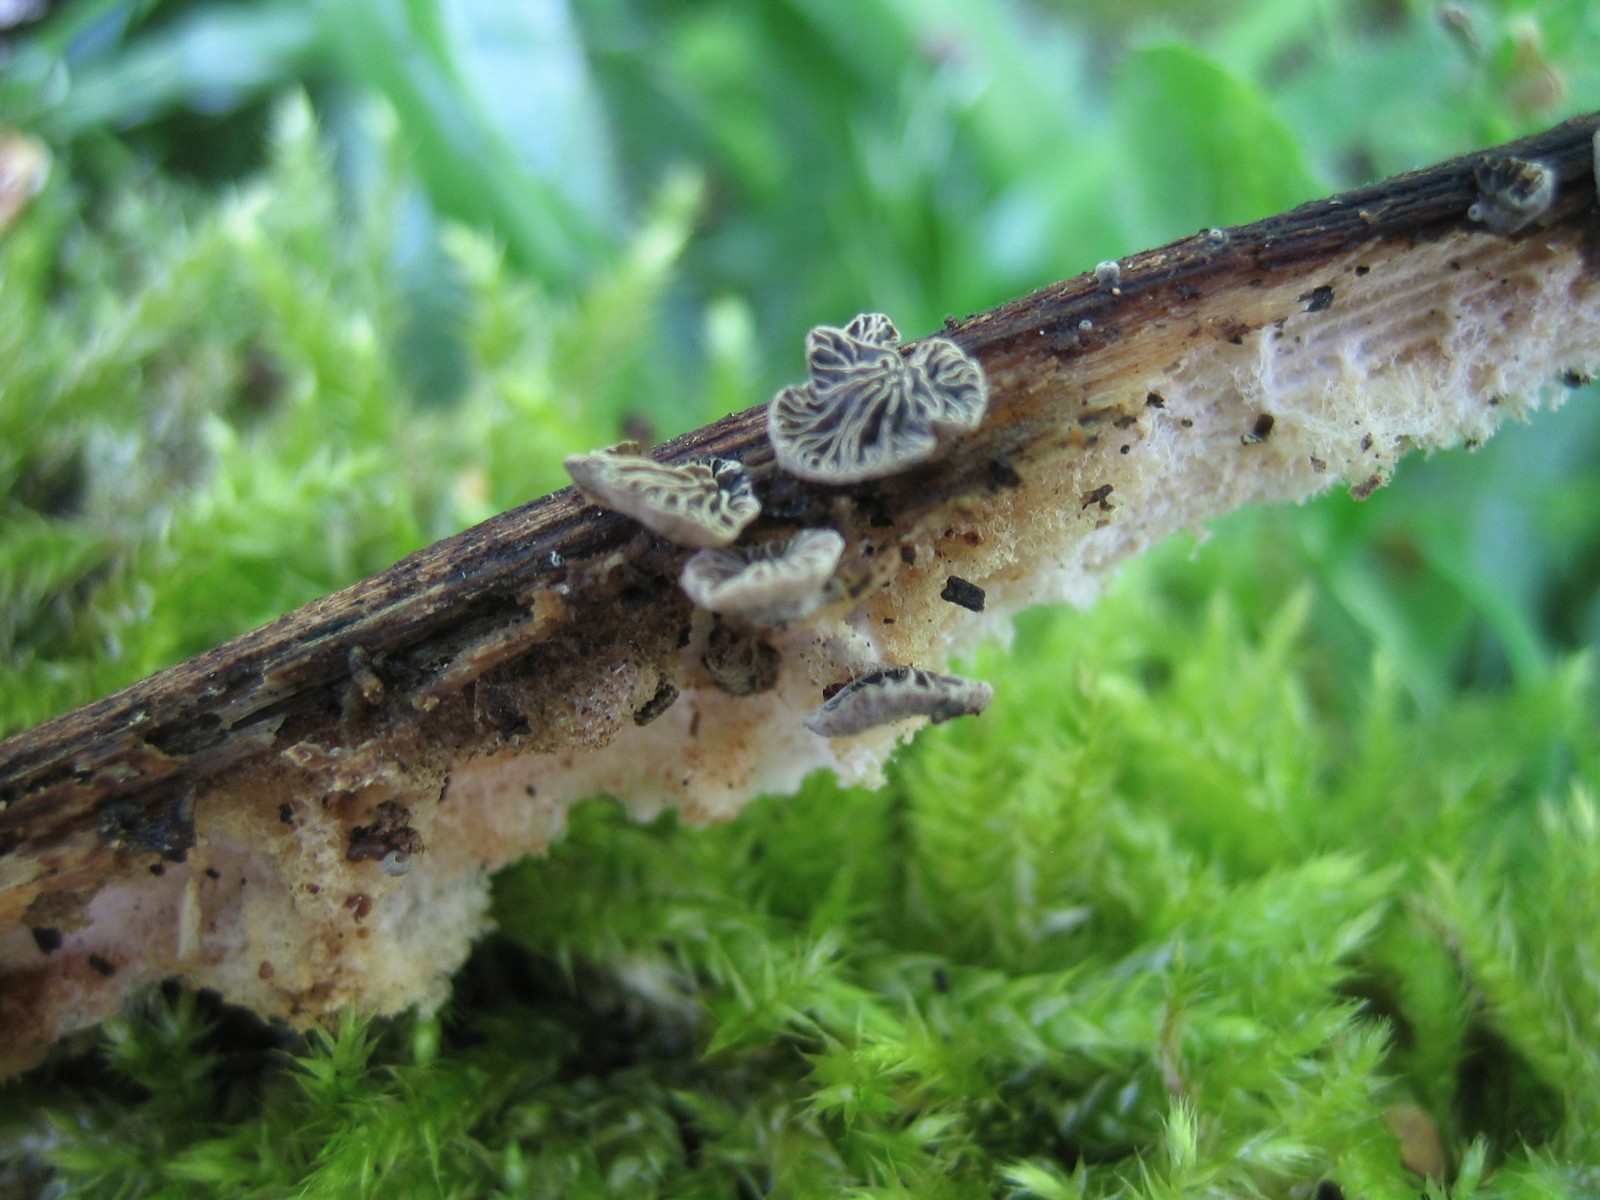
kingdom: Fungi
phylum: Basidiomycota
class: Agaricomycetes
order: Agaricales
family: Pleurotaceae
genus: Resupinatus
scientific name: Resupinatus applicatus
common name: lysfiltet barkhat
